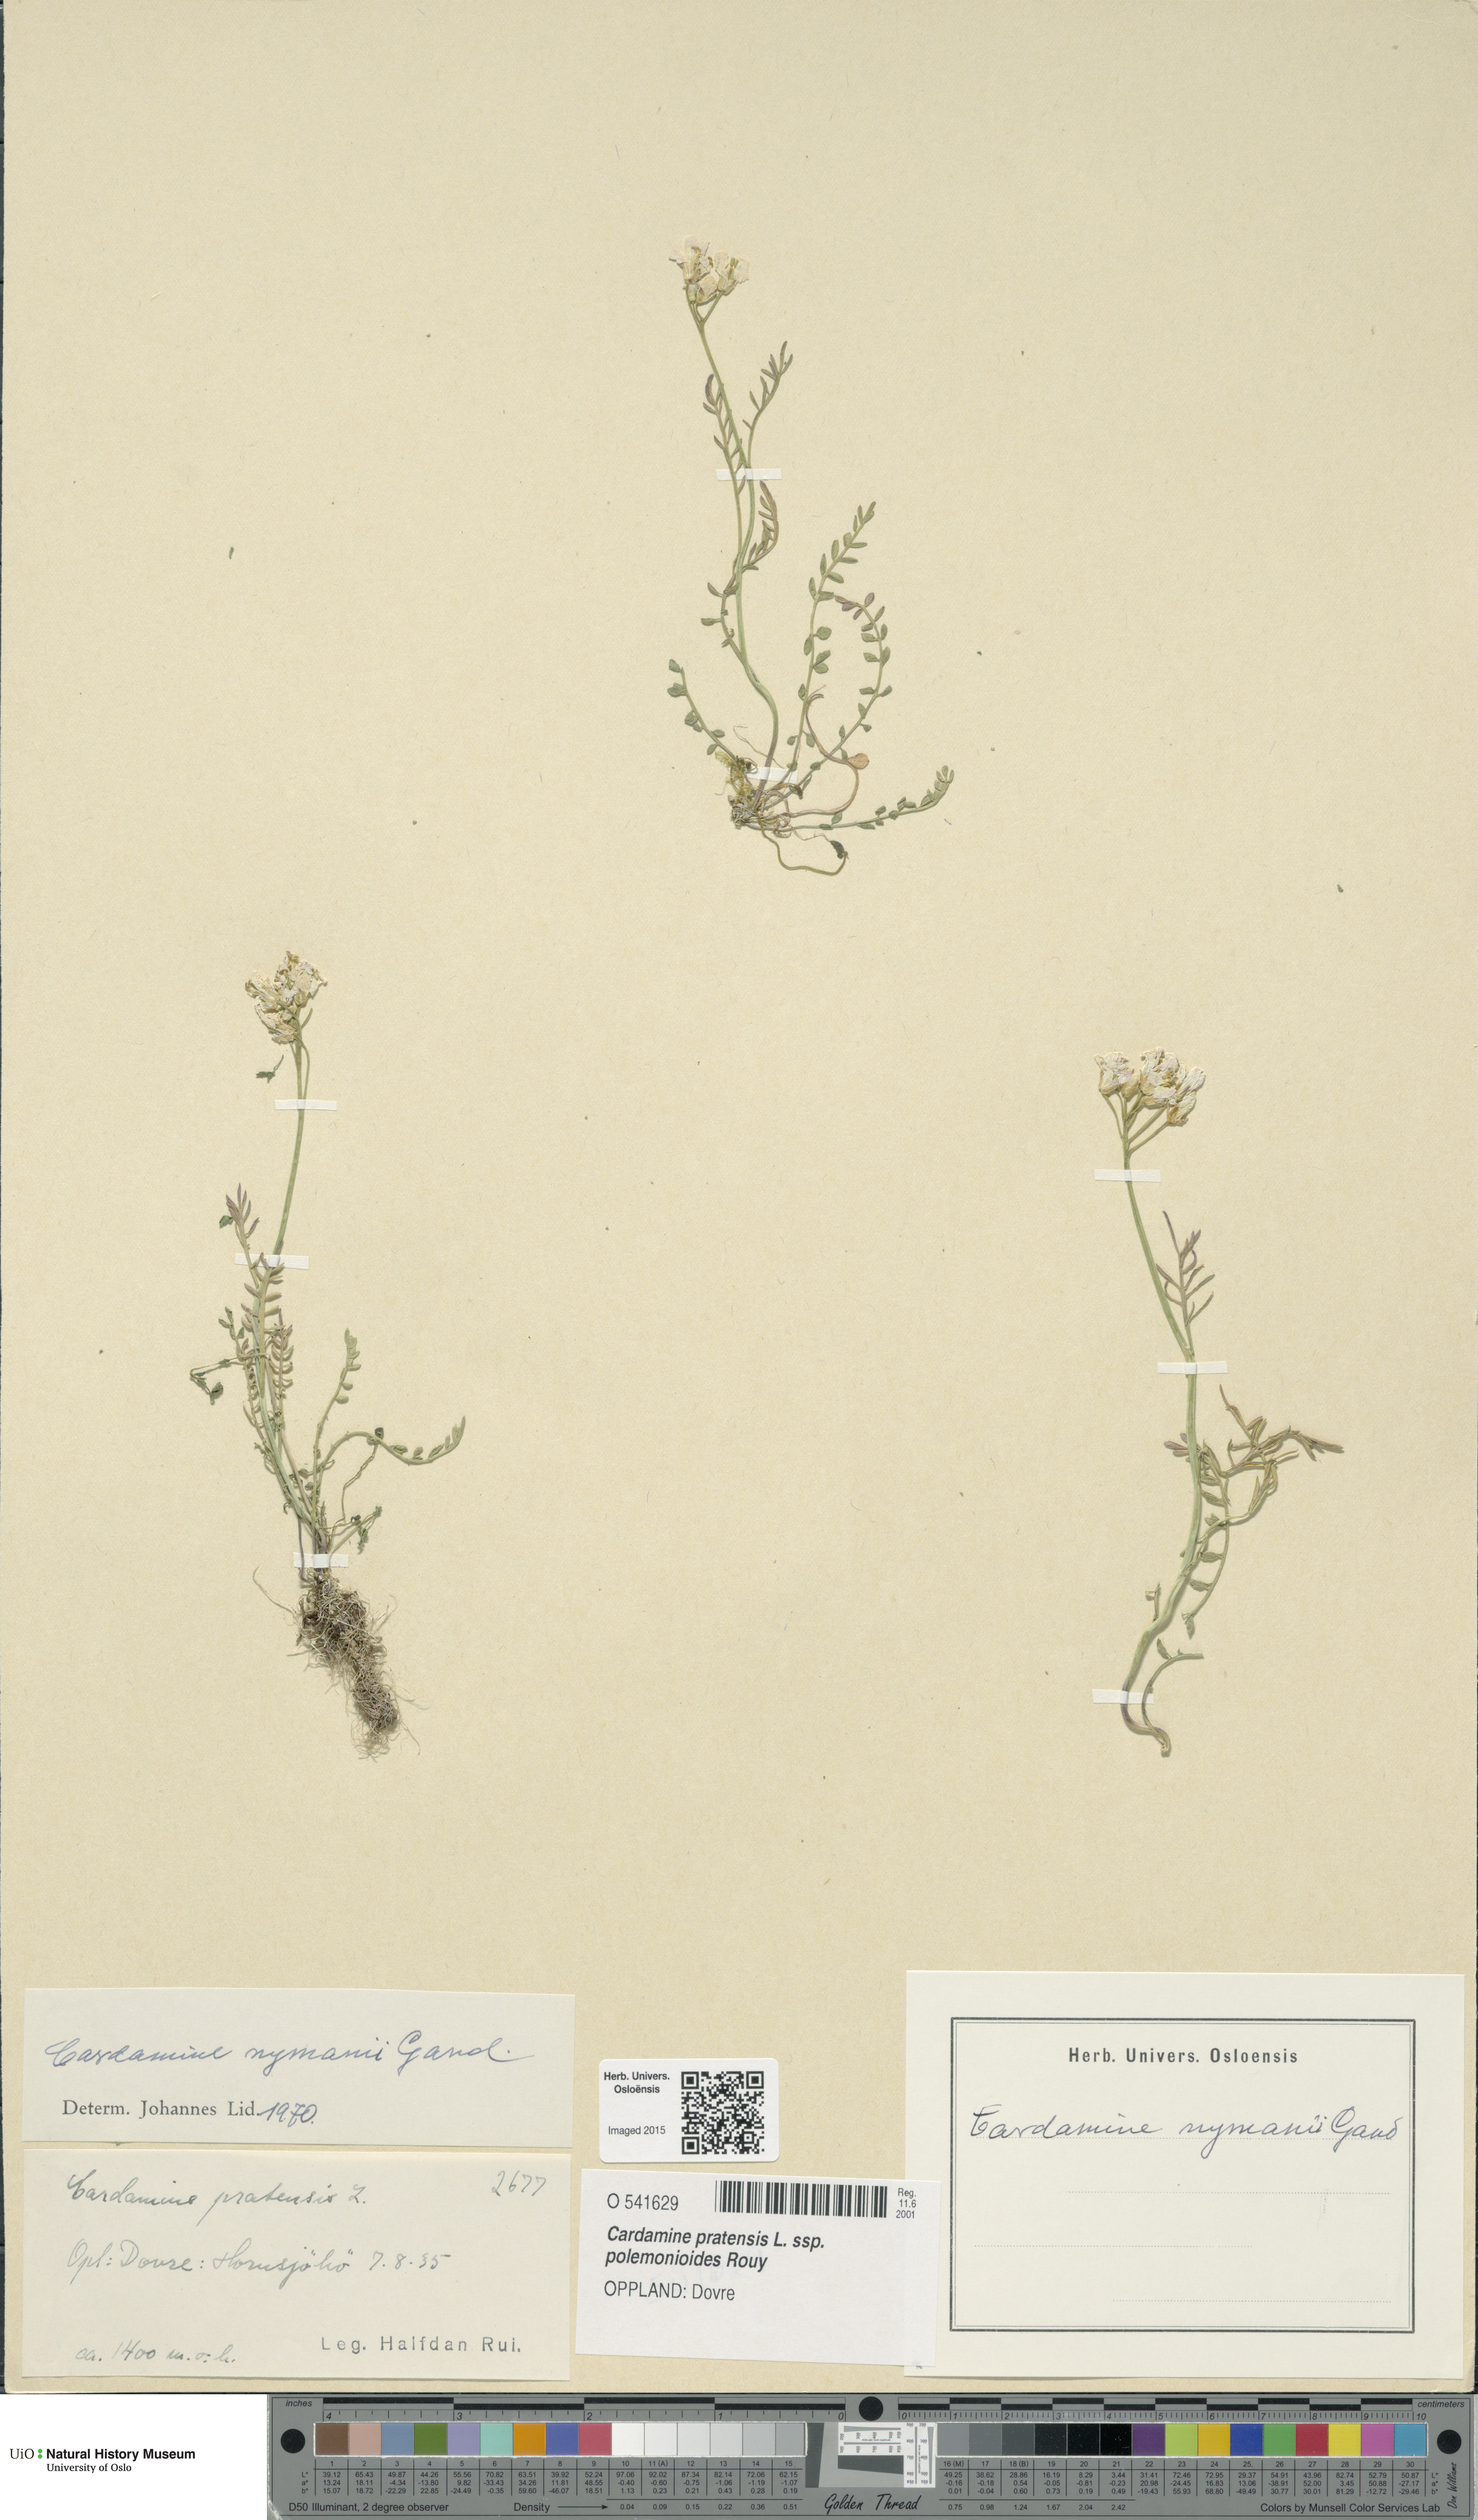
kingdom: Plantae
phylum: Tracheophyta
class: Magnoliopsida
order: Brassicales
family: Brassicaceae
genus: Cardamine
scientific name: Cardamine nymanii
